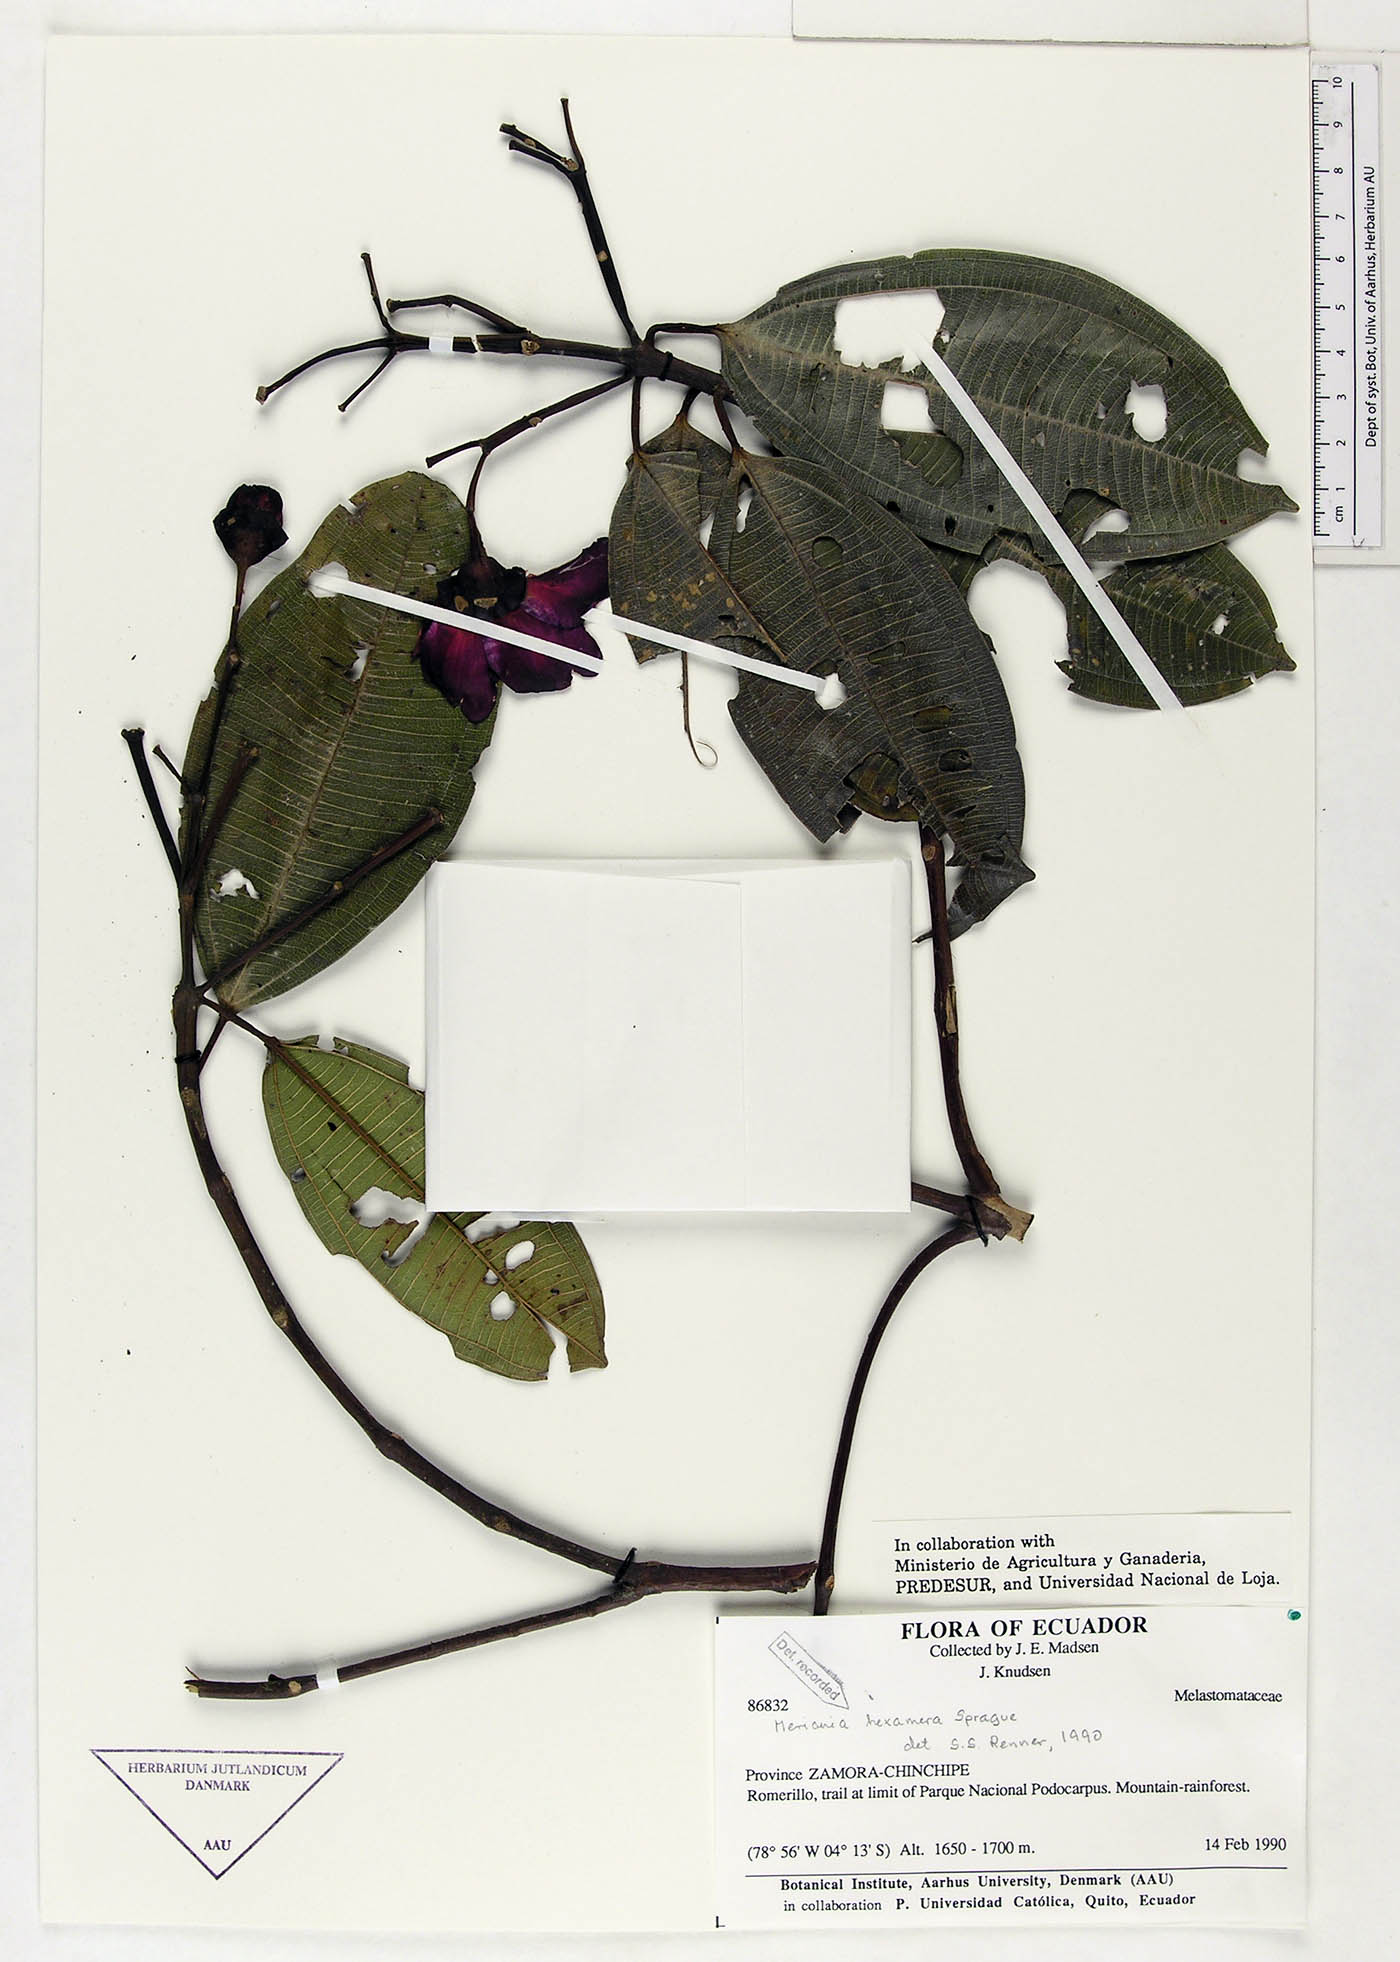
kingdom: Plantae
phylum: Tracheophyta
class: Magnoliopsida
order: Myrtales
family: Melastomataceae
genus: Meriania
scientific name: Meriania hexamera
